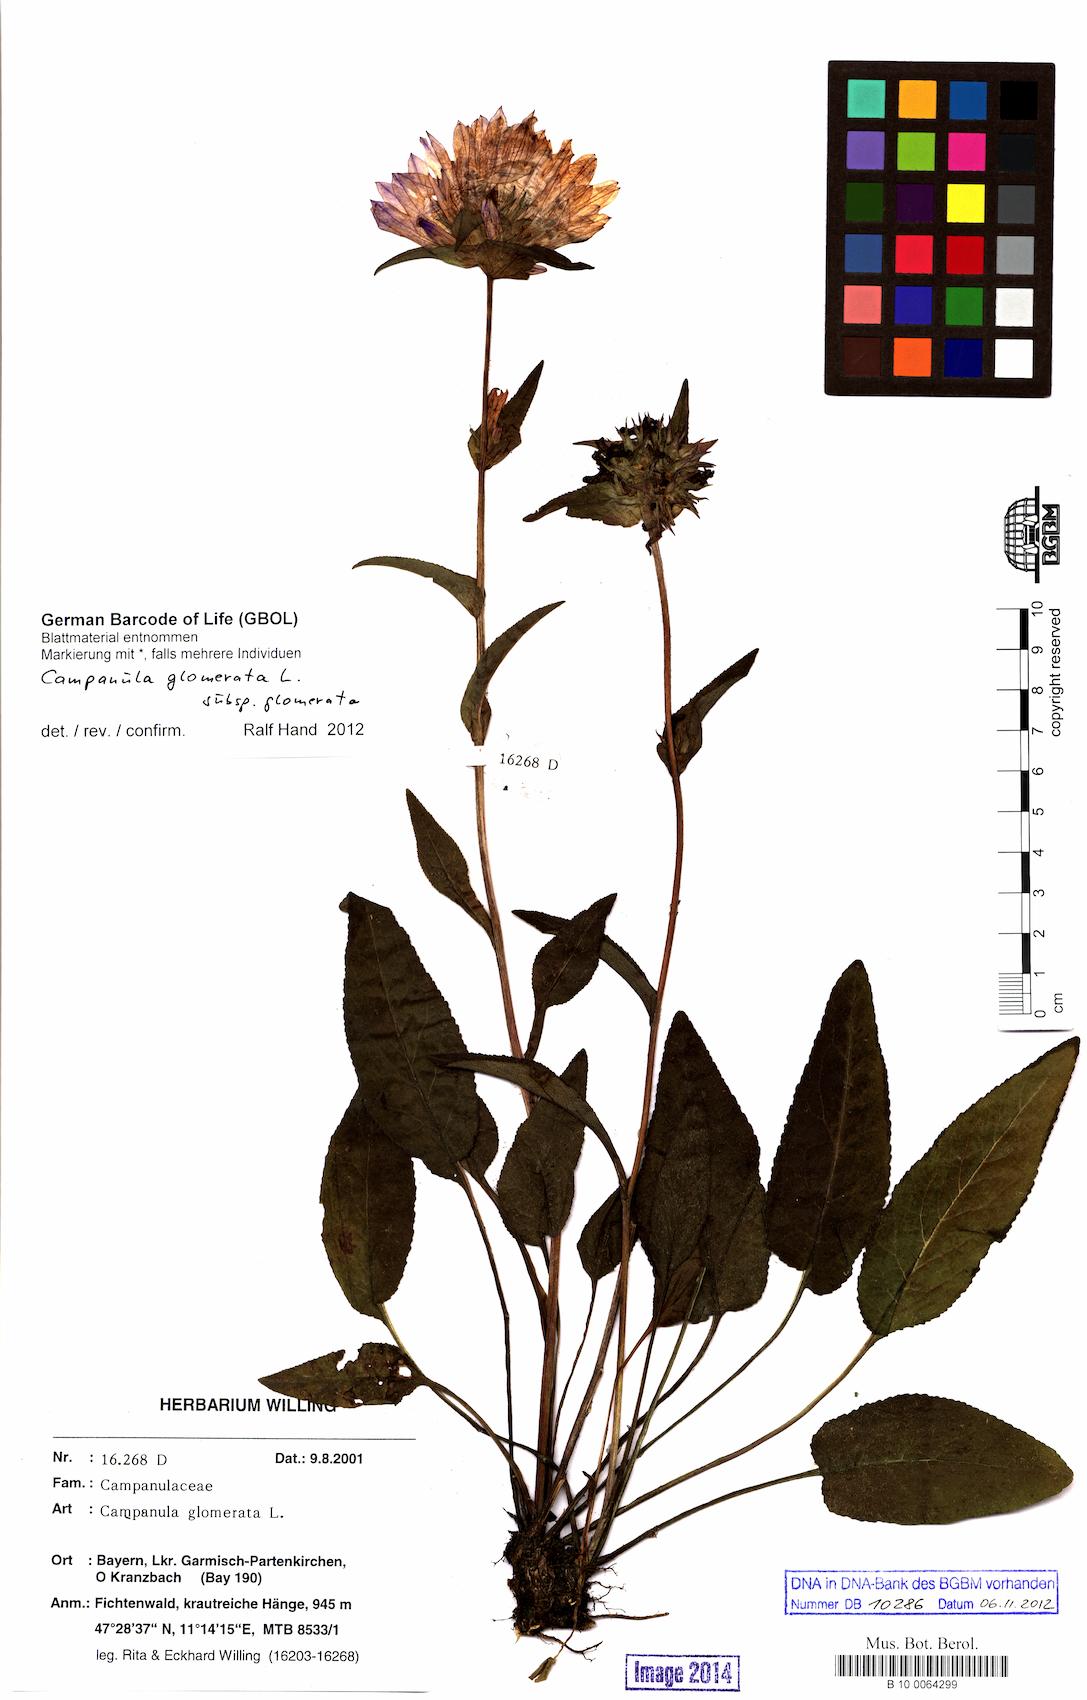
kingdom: Plantae
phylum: Tracheophyta
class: Magnoliopsida
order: Asterales
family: Campanulaceae
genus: Campanula
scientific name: Campanula glomerata
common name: Clustered bellflower
